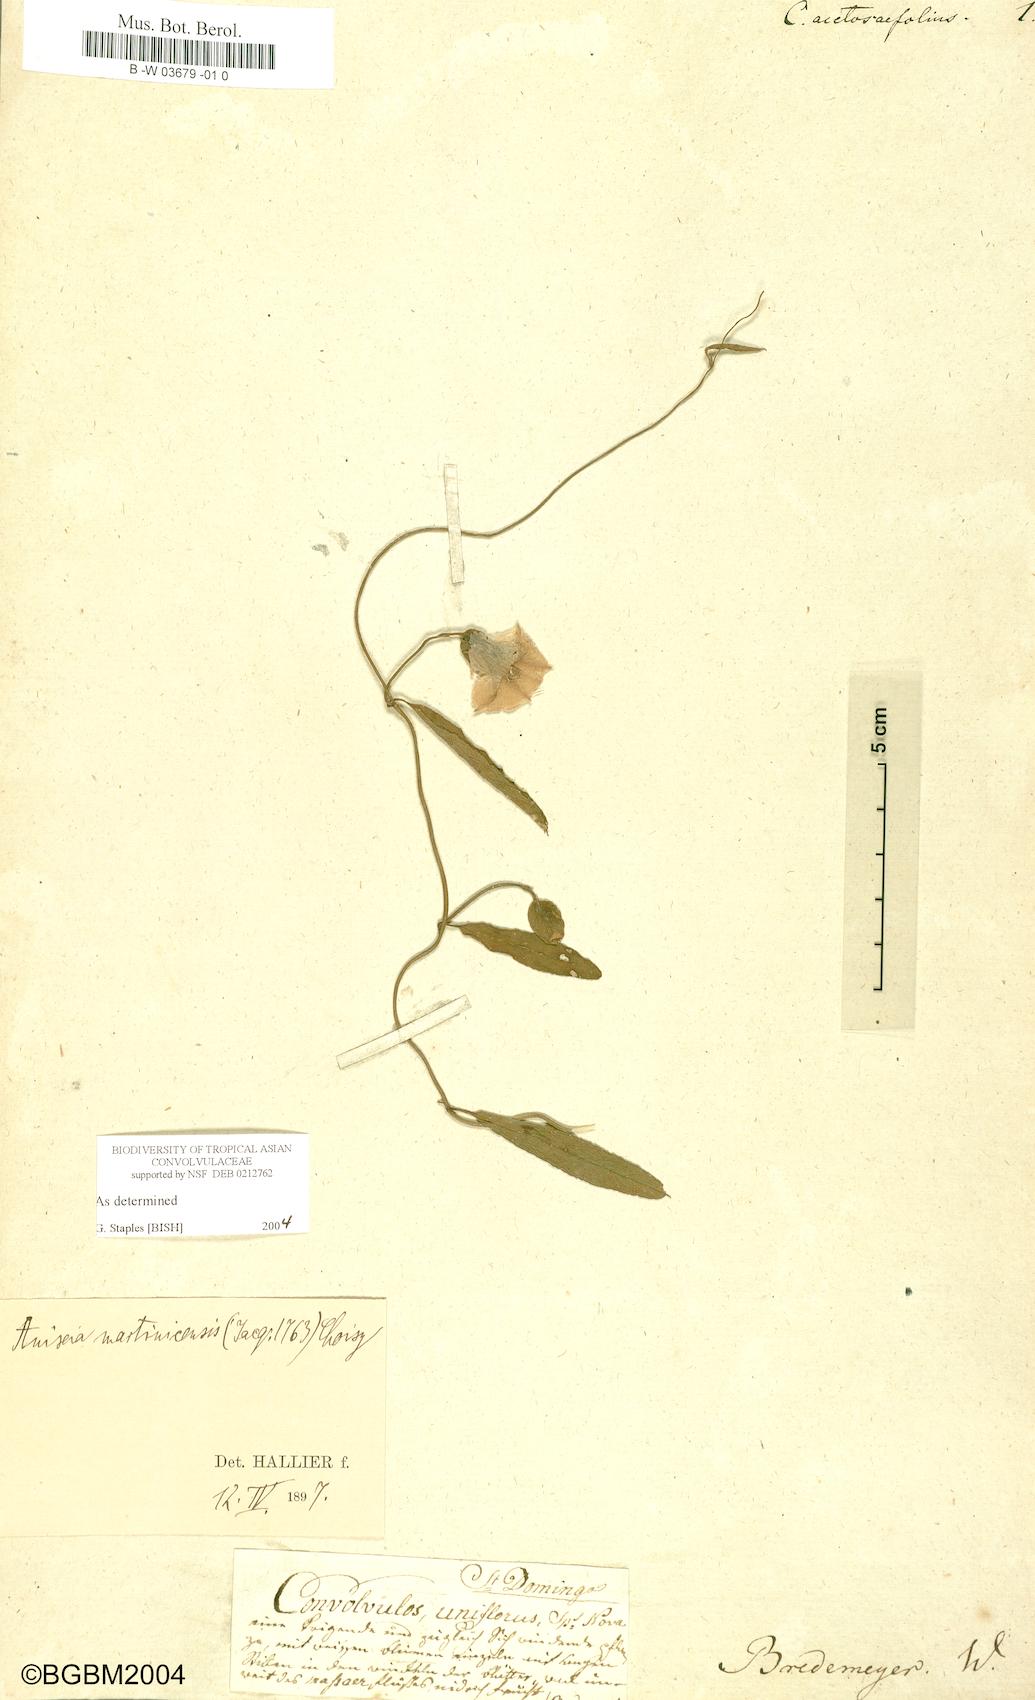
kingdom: Plantae
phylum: Tracheophyta
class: Magnoliopsida
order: Solanales
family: Convolvulaceae
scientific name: Convolvulaceae
